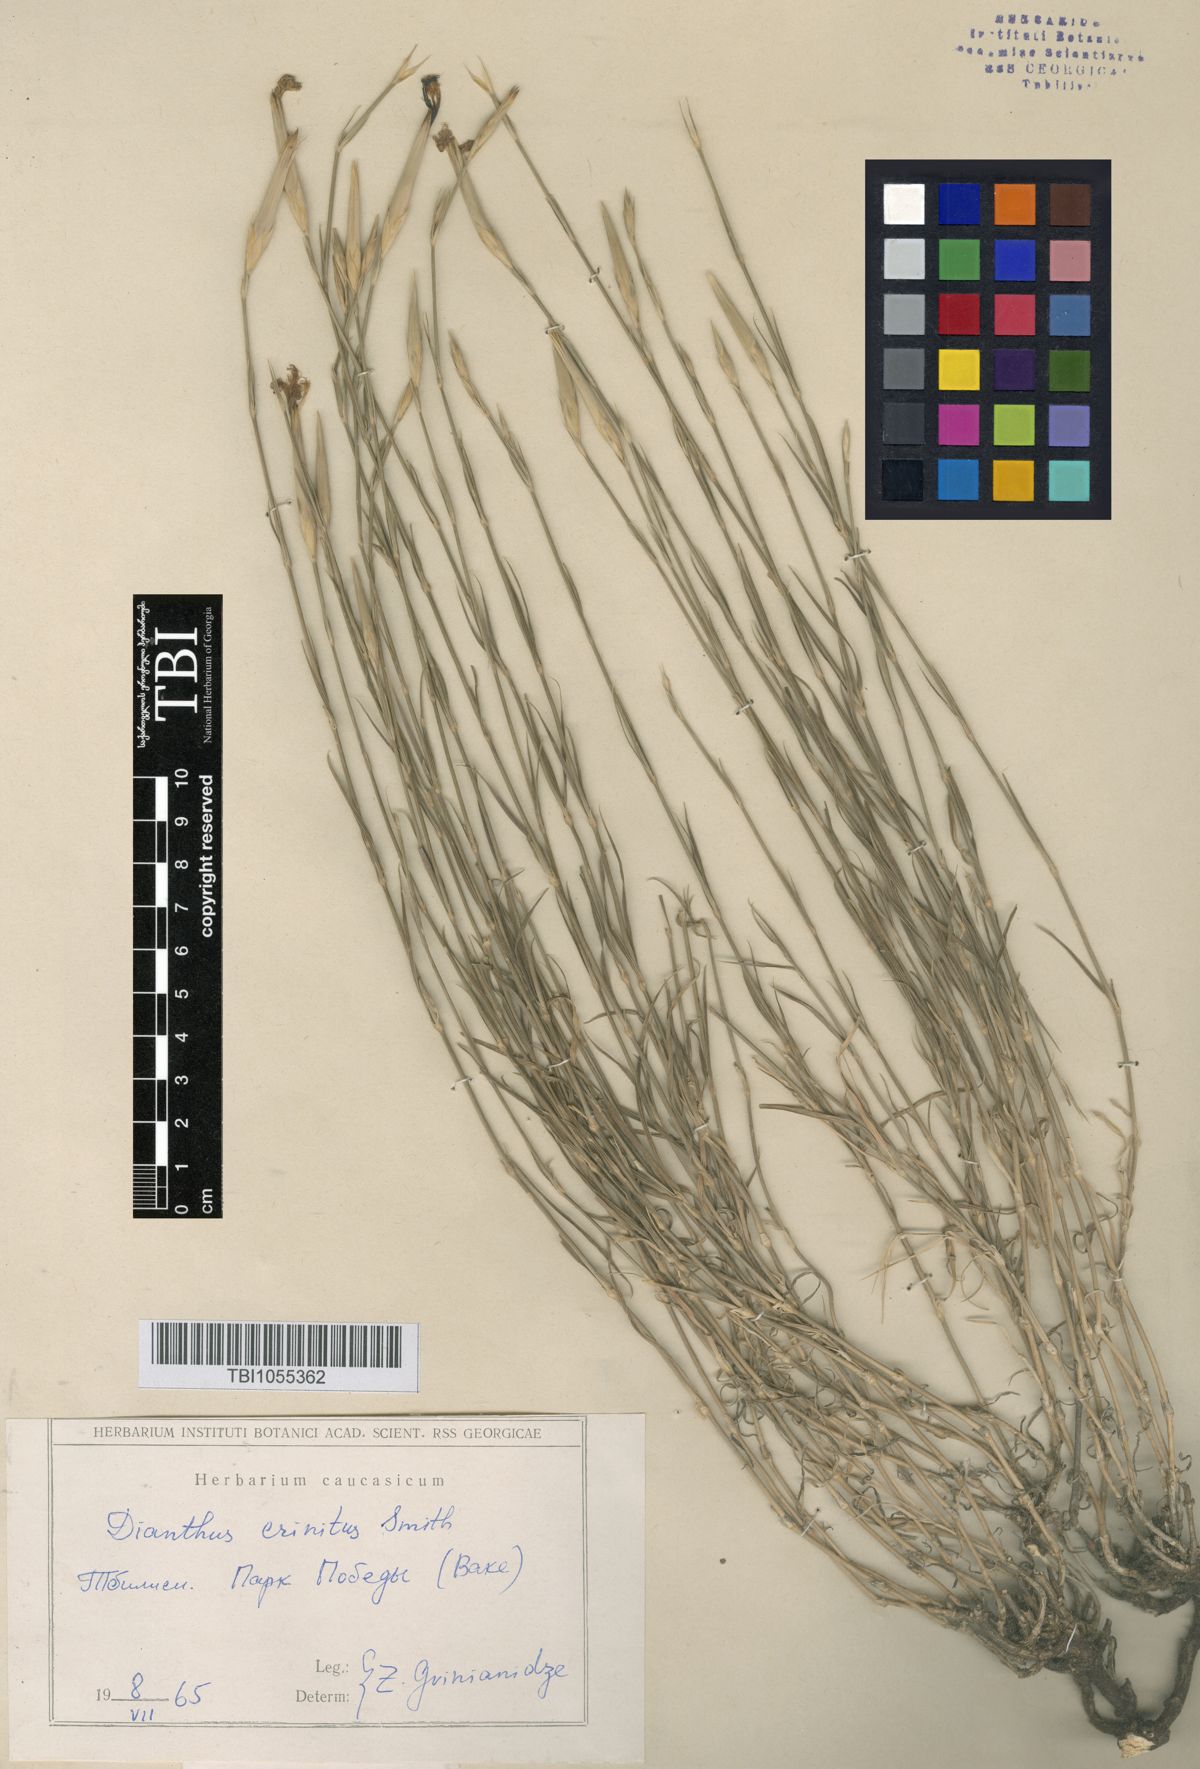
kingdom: Plantae
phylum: Tracheophyta
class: Magnoliopsida
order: Caryophyllales
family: Caryophyllaceae
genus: Dianthus
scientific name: Dianthus crinitus
